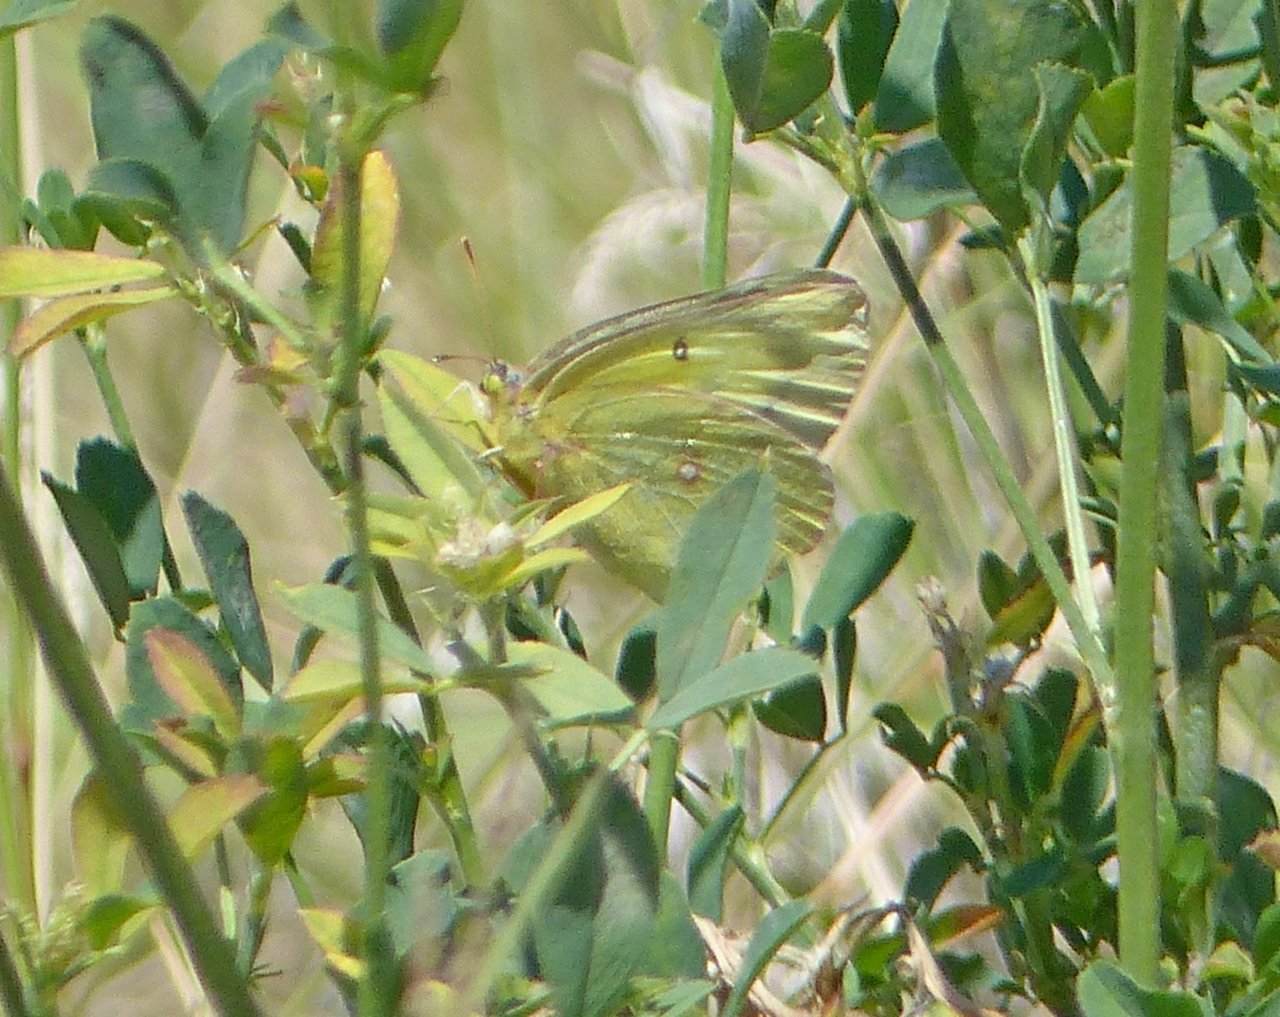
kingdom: Animalia
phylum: Arthropoda
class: Insecta
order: Lepidoptera
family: Pieridae
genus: Colias
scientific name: Colias philodice
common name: Clouded Sulphur
